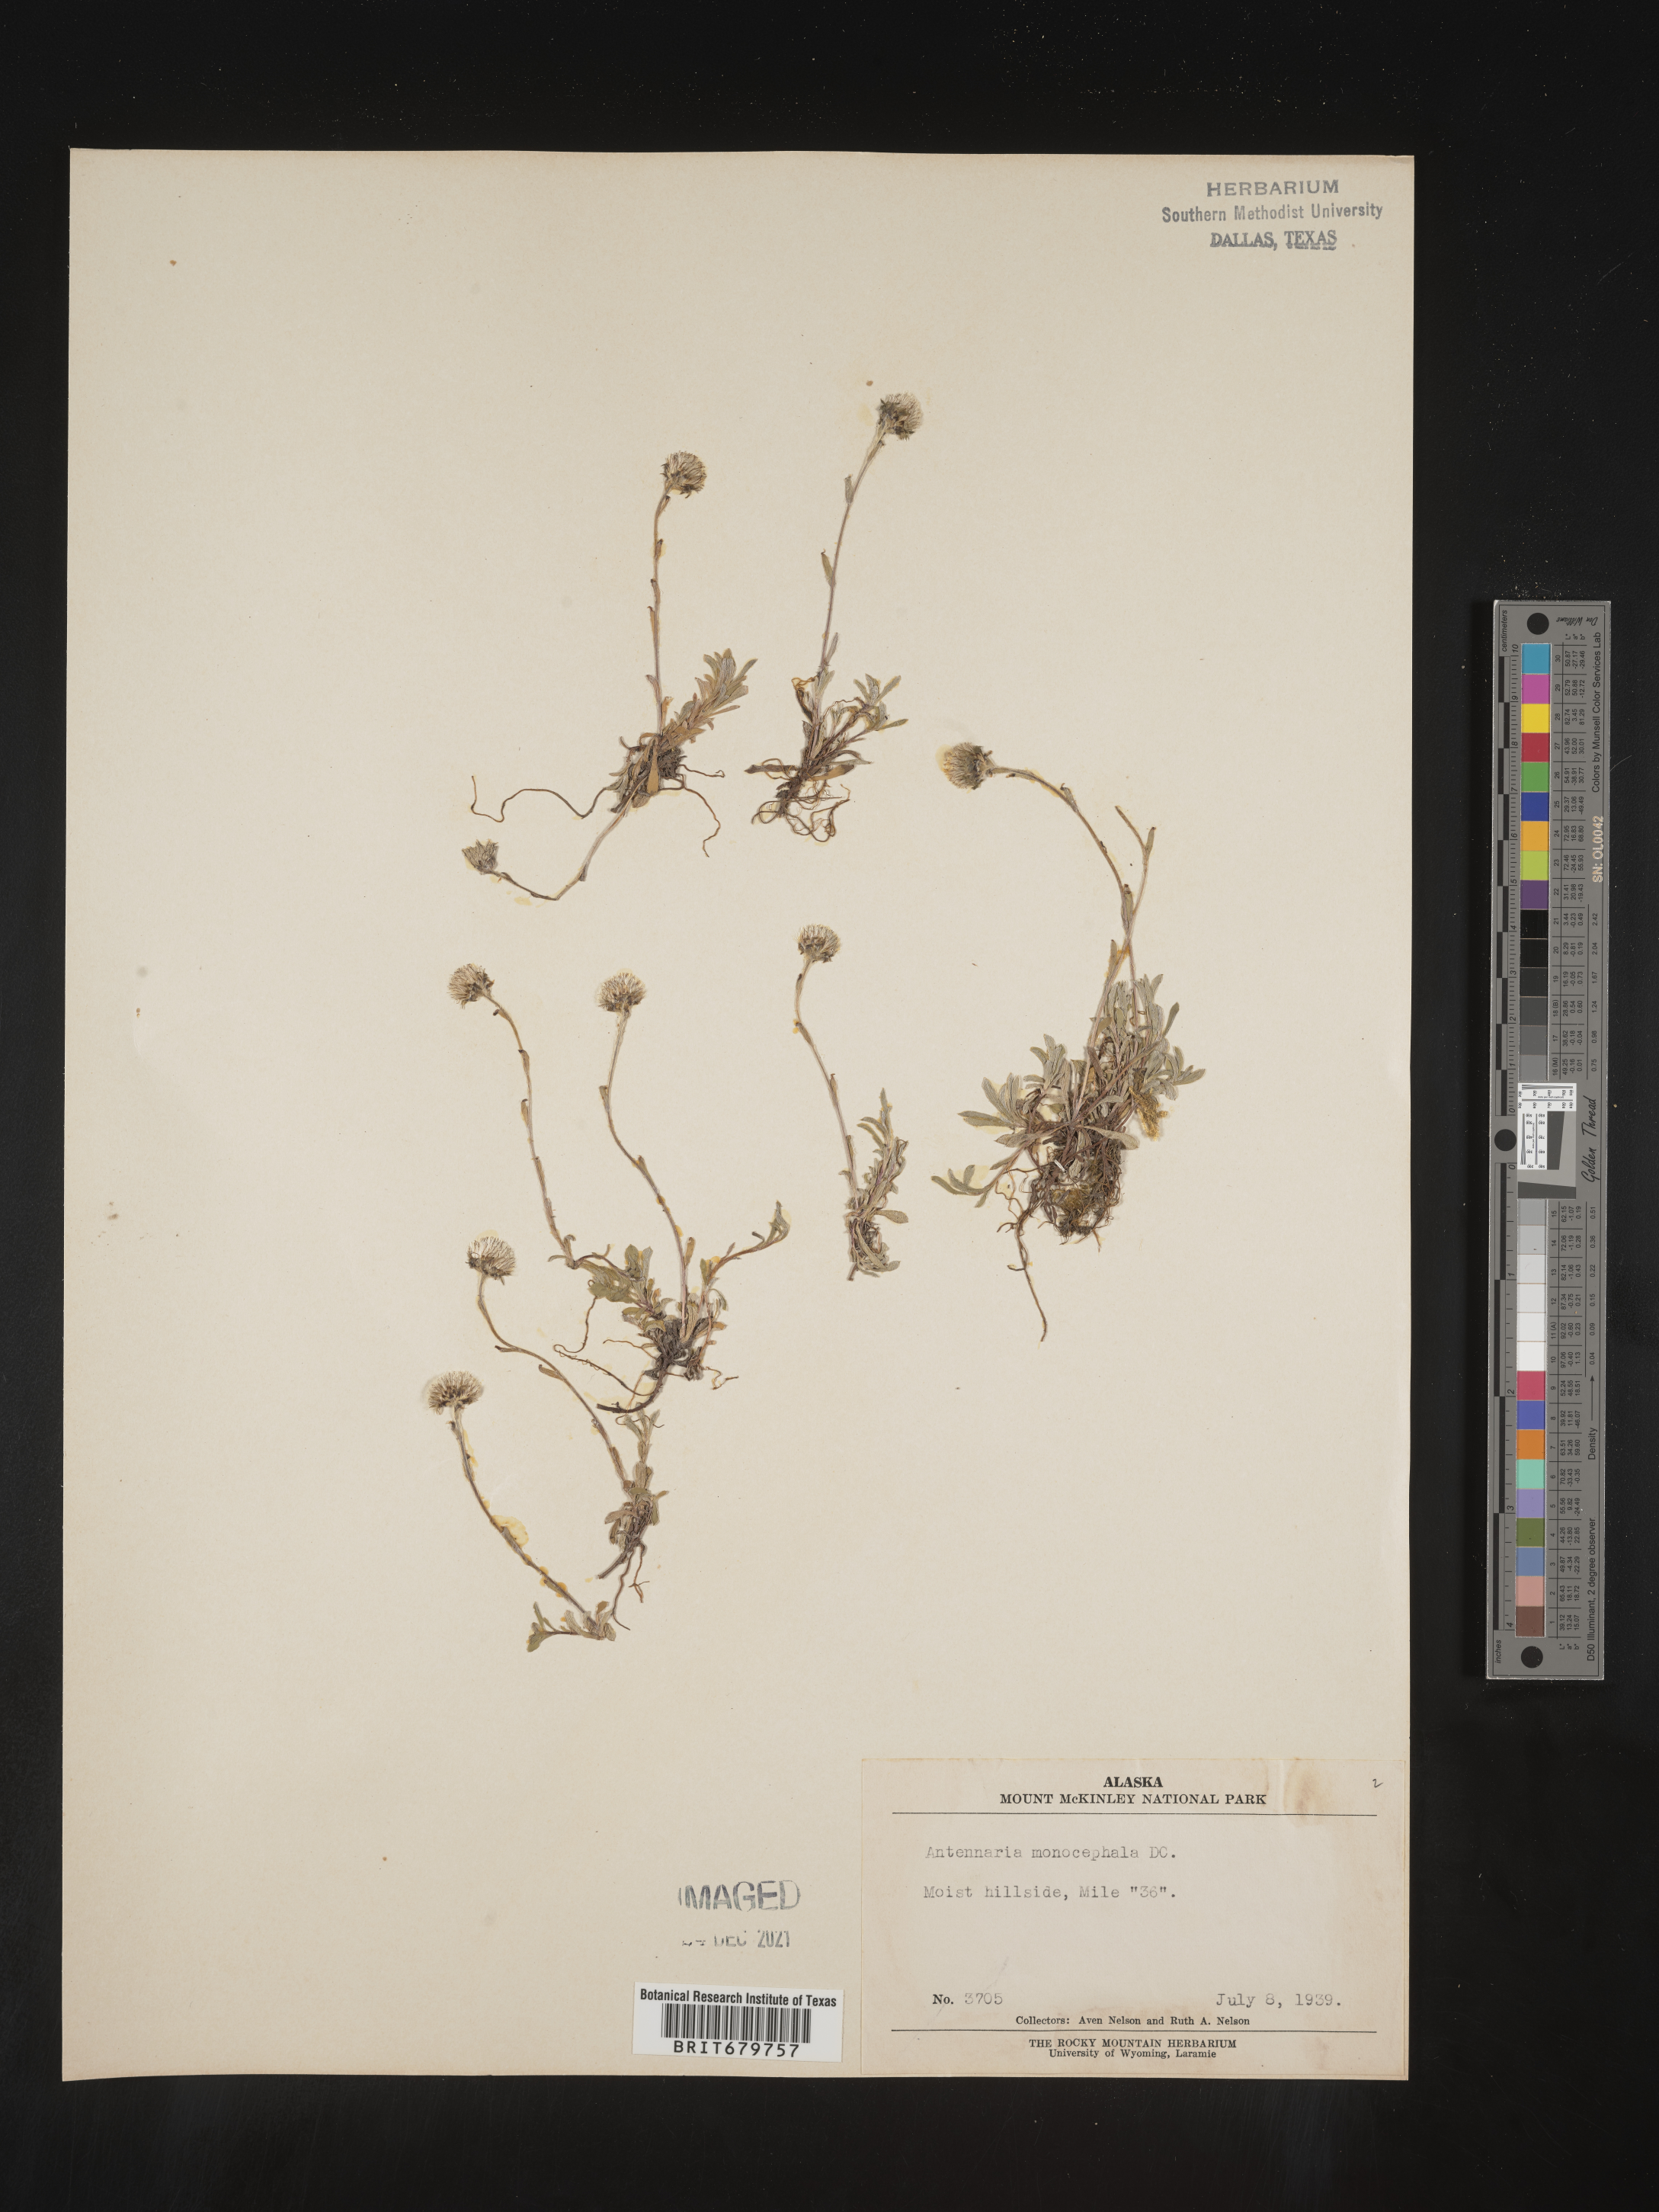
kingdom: Plantae
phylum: Tracheophyta
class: Magnoliopsida
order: Asterales
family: Asteraceae
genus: Antennaria
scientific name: Antennaria monocephala
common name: Pygmy pussytoes
